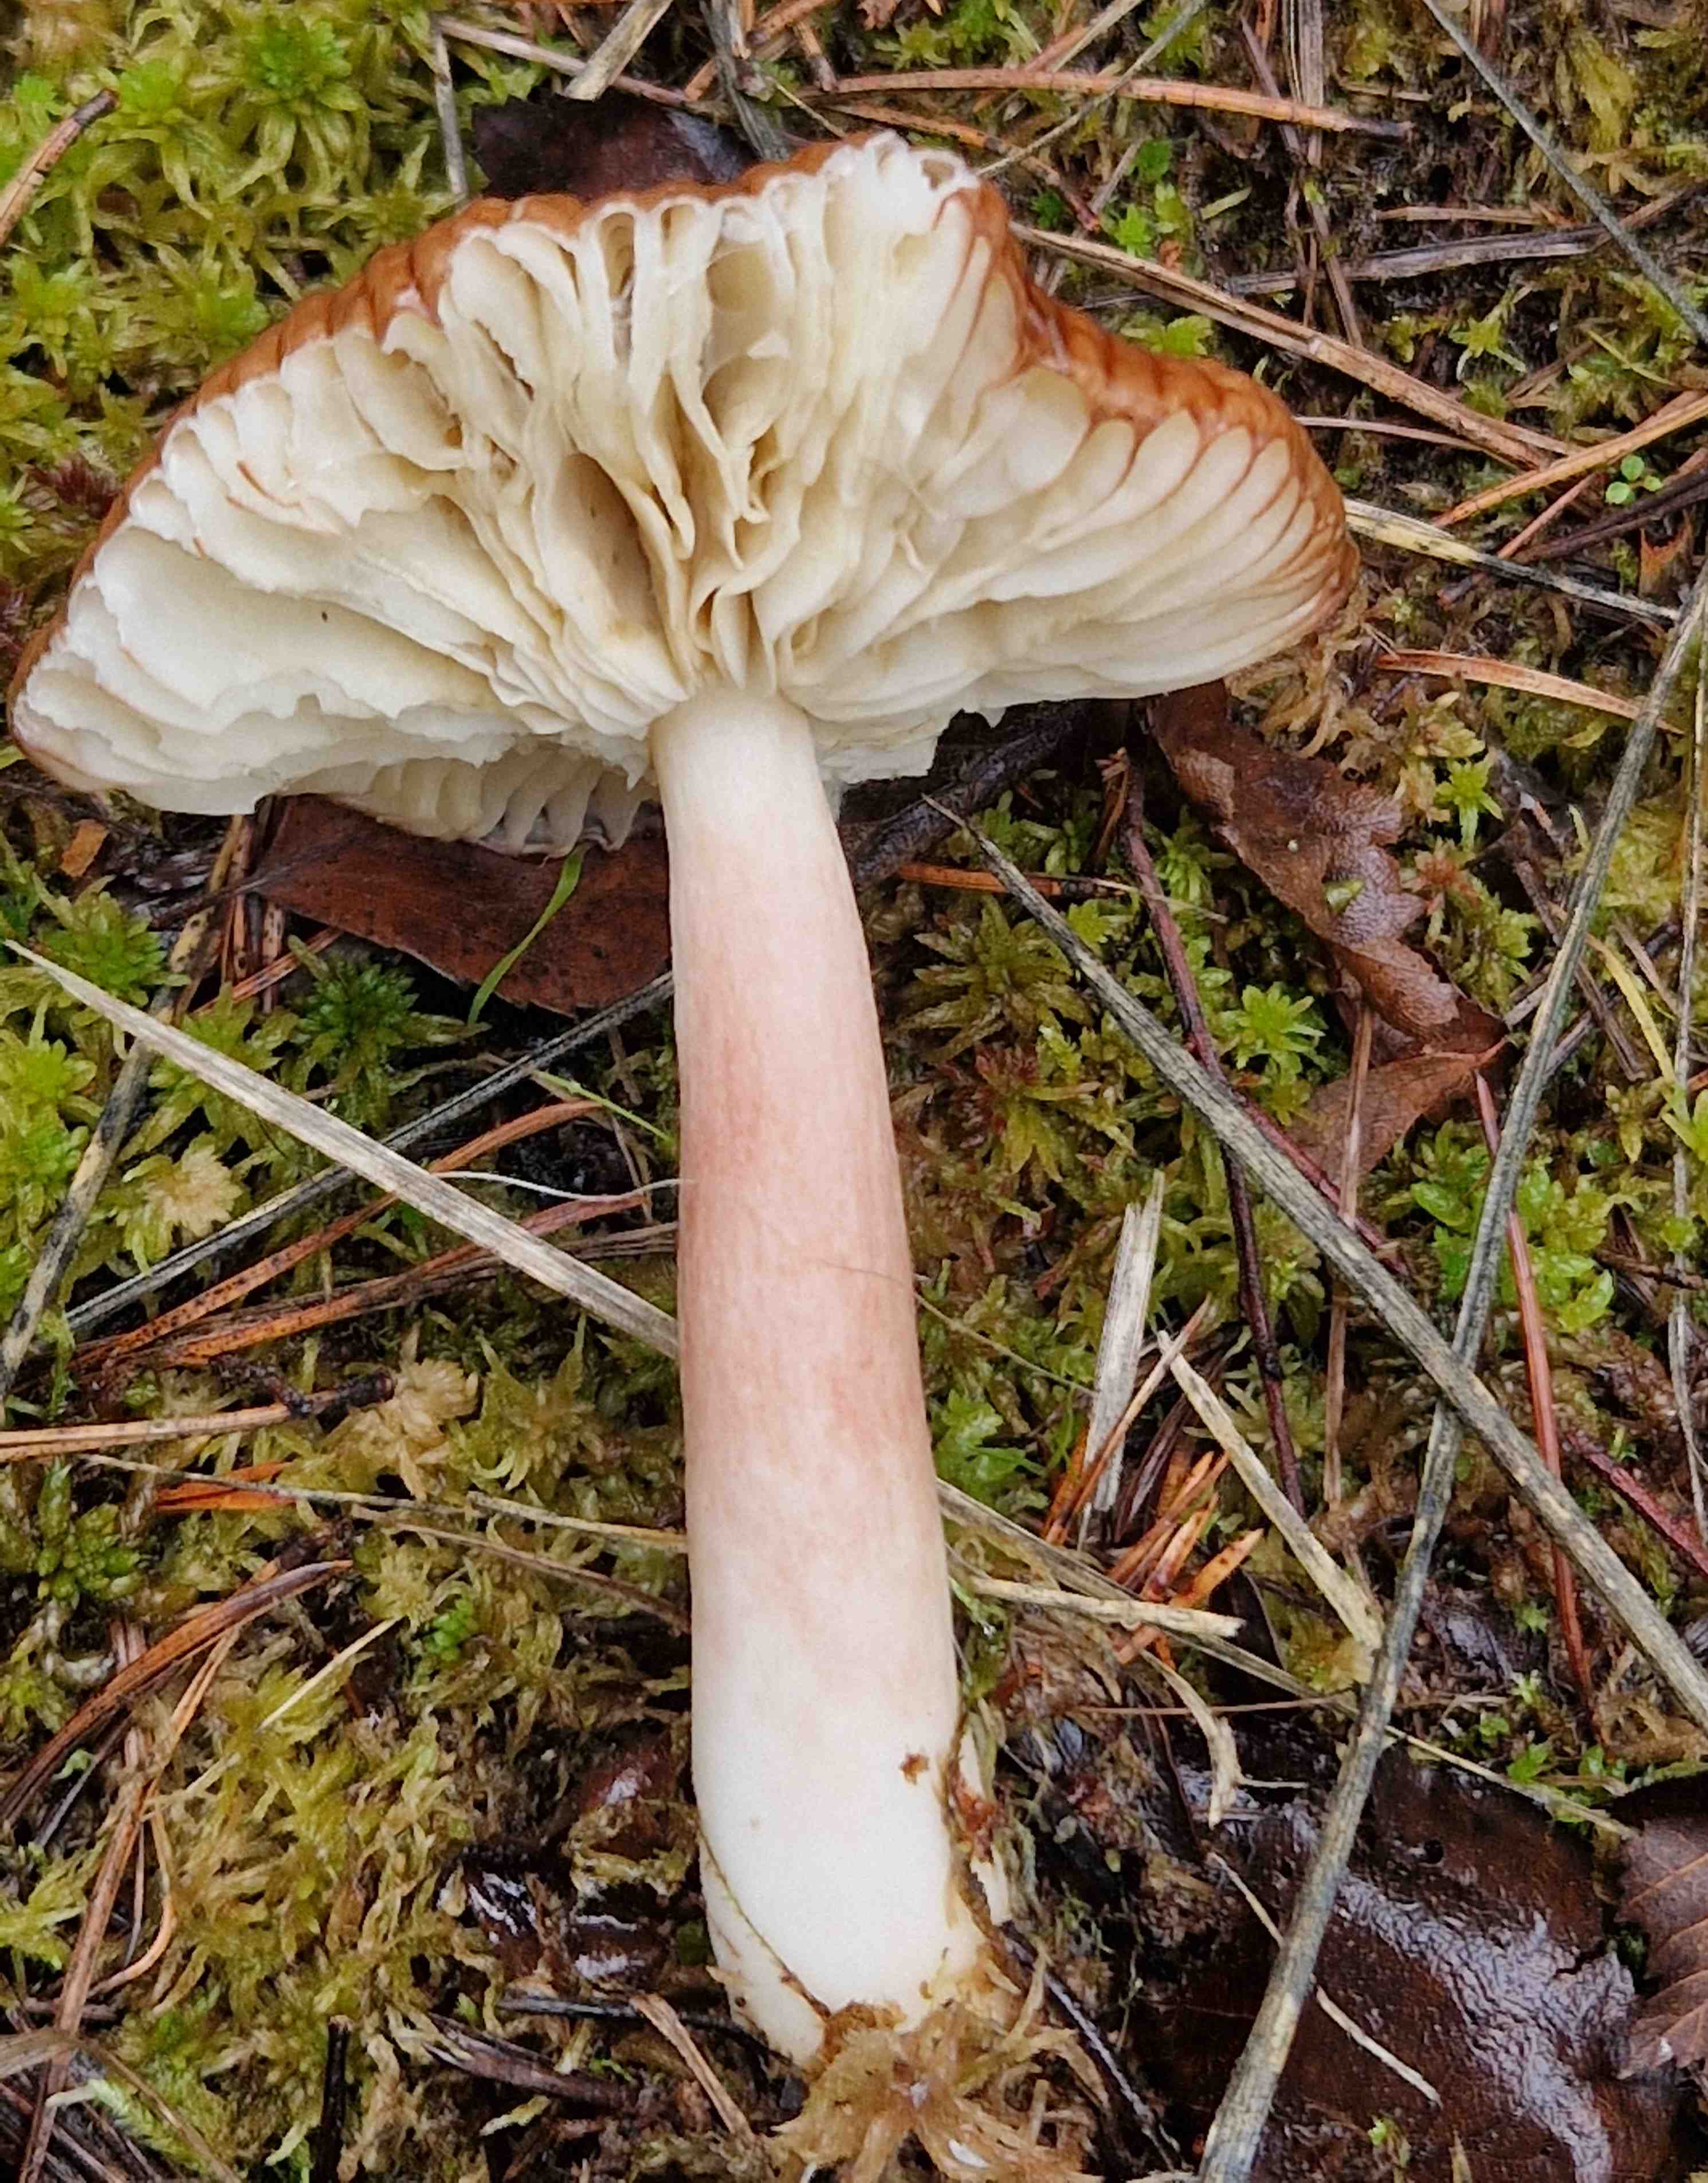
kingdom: Fungi
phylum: Basidiomycota
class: Agaricomycetes
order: Russulales
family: Russulaceae
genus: Russula
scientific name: Russula
